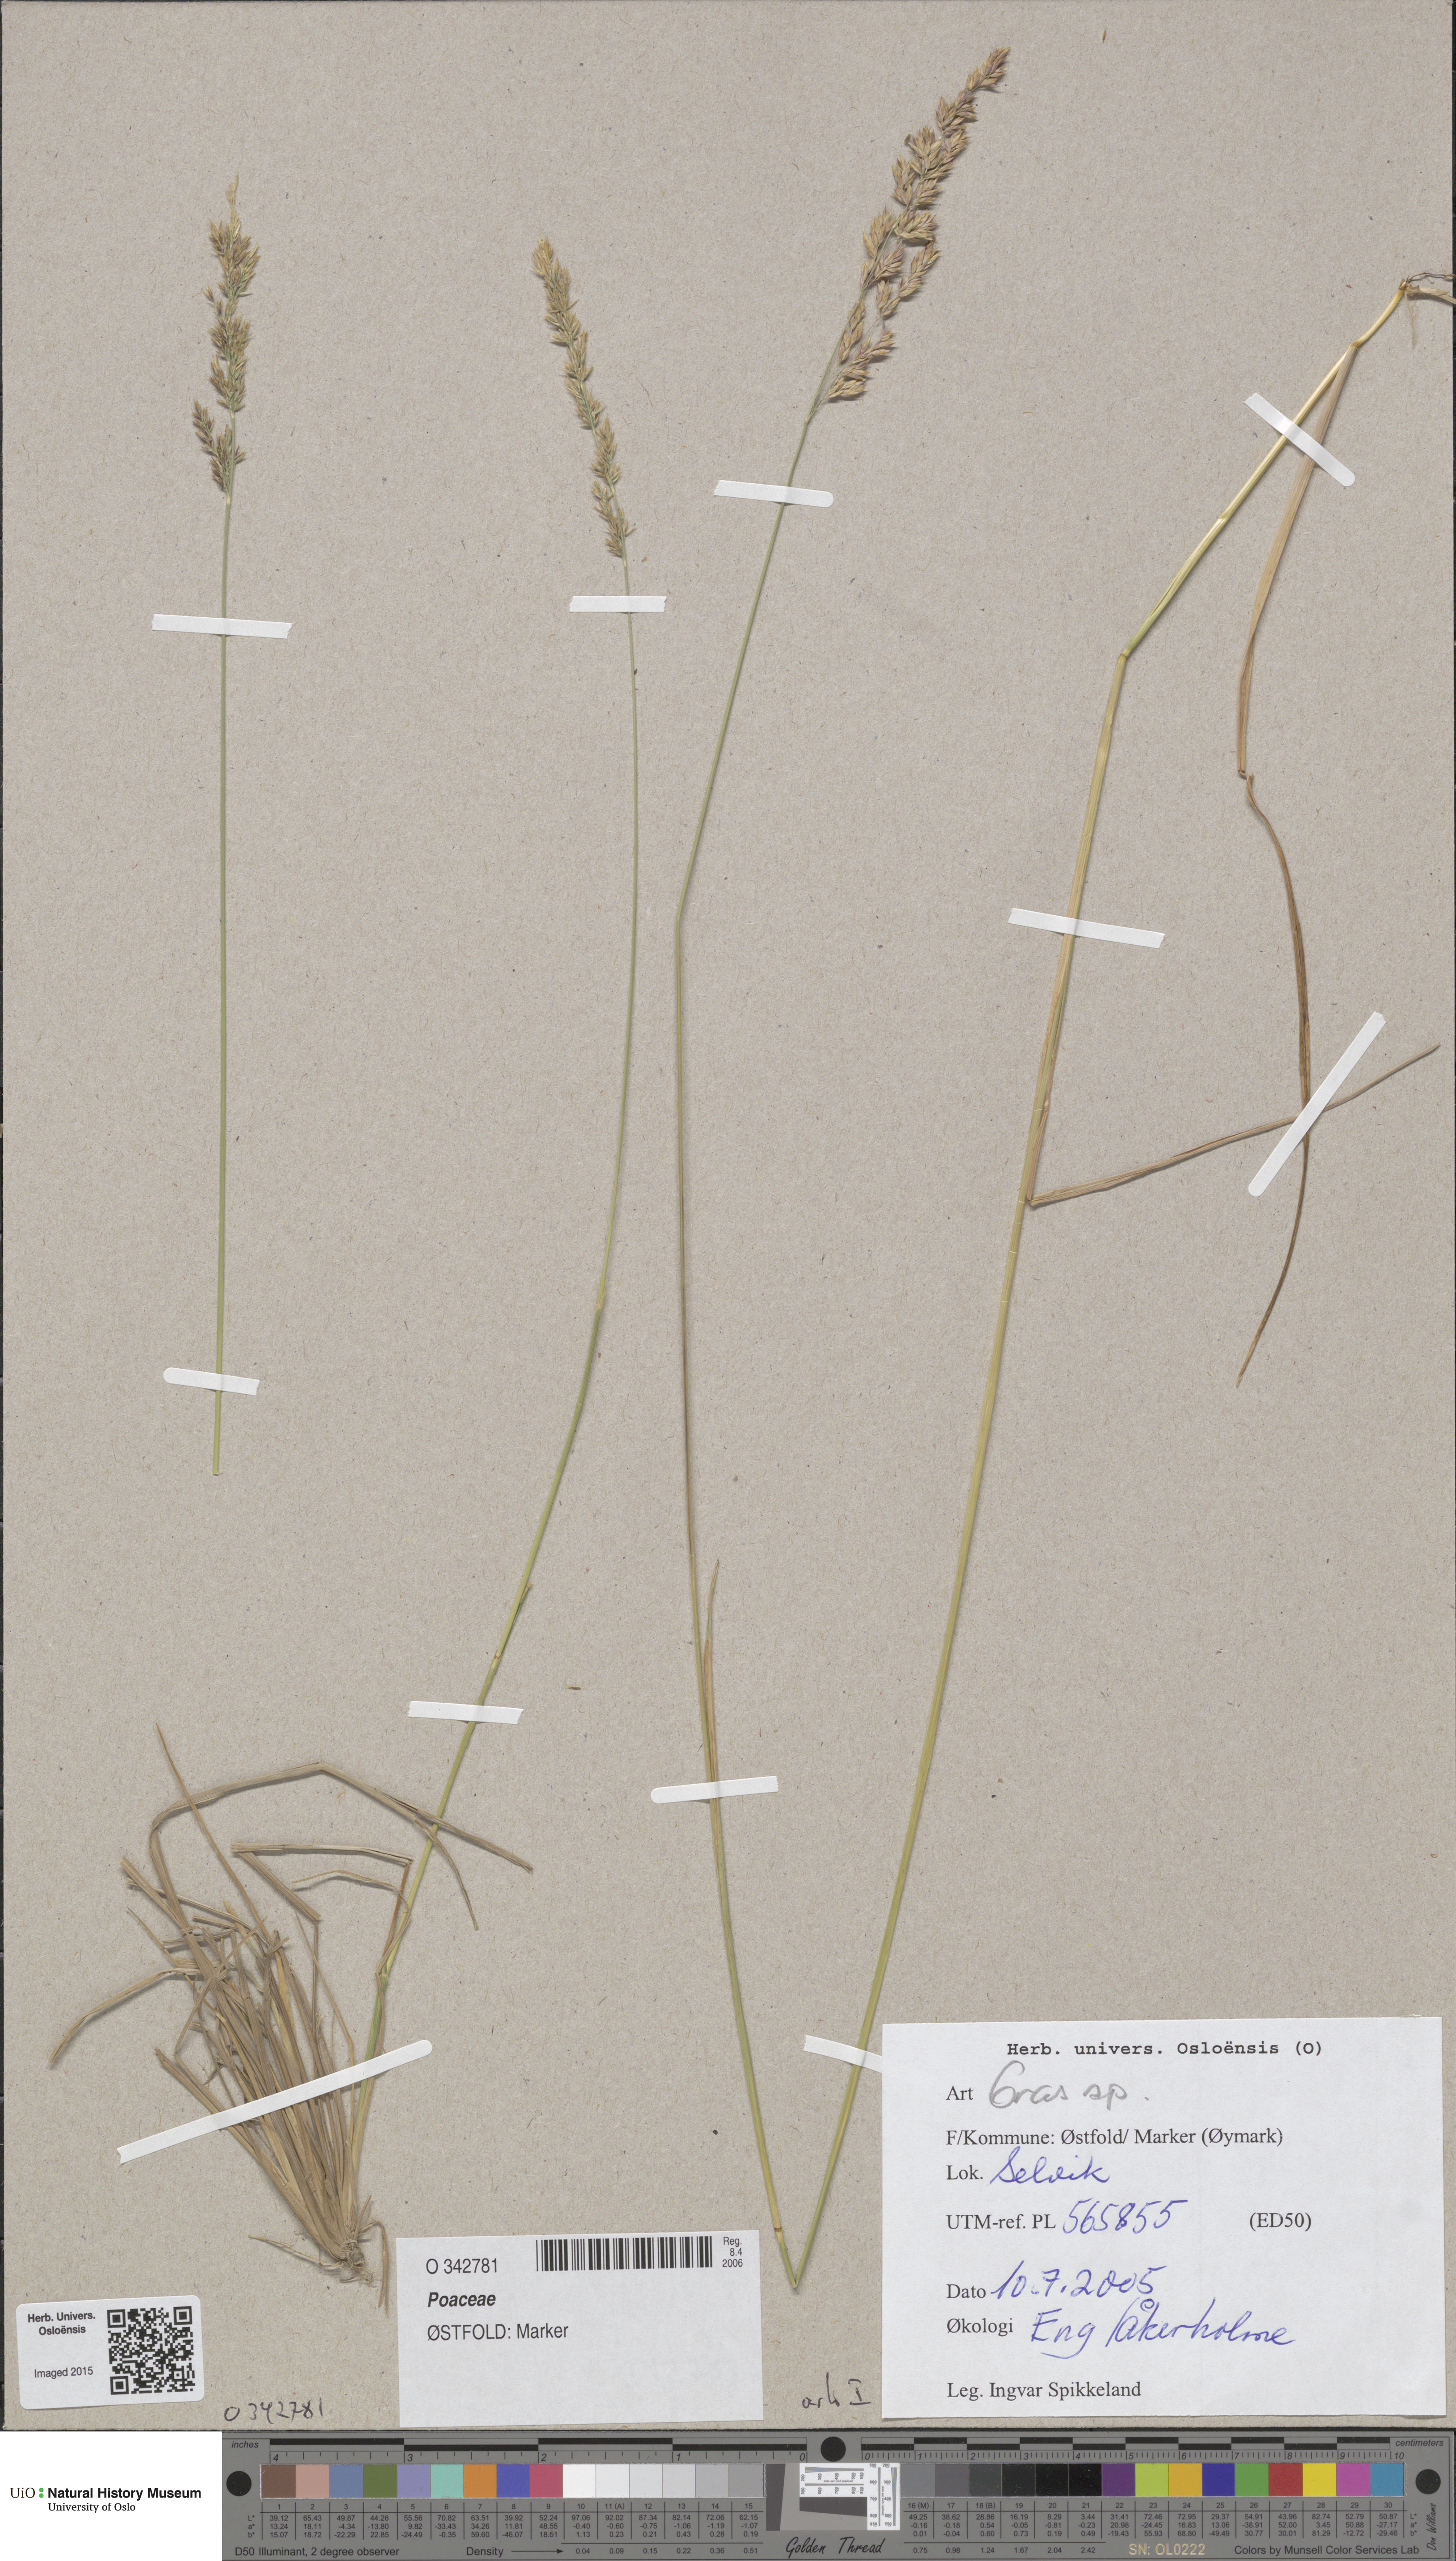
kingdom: Plantae
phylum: Tracheophyta
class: Liliopsida
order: Poales
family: Poaceae
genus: Poa
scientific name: Poa
